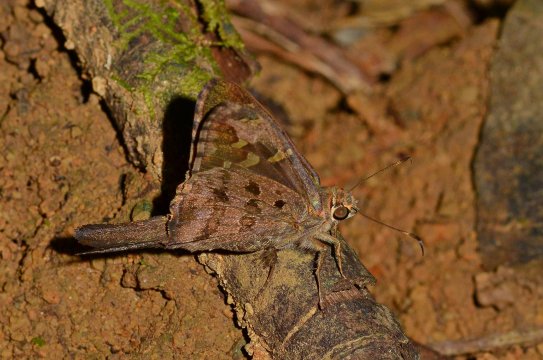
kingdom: Animalia
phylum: Arthropoda
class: Insecta
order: Lepidoptera
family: Hesperiidae
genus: Urbanus
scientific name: Urbanus dorantes
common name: Dorantes Longtail
